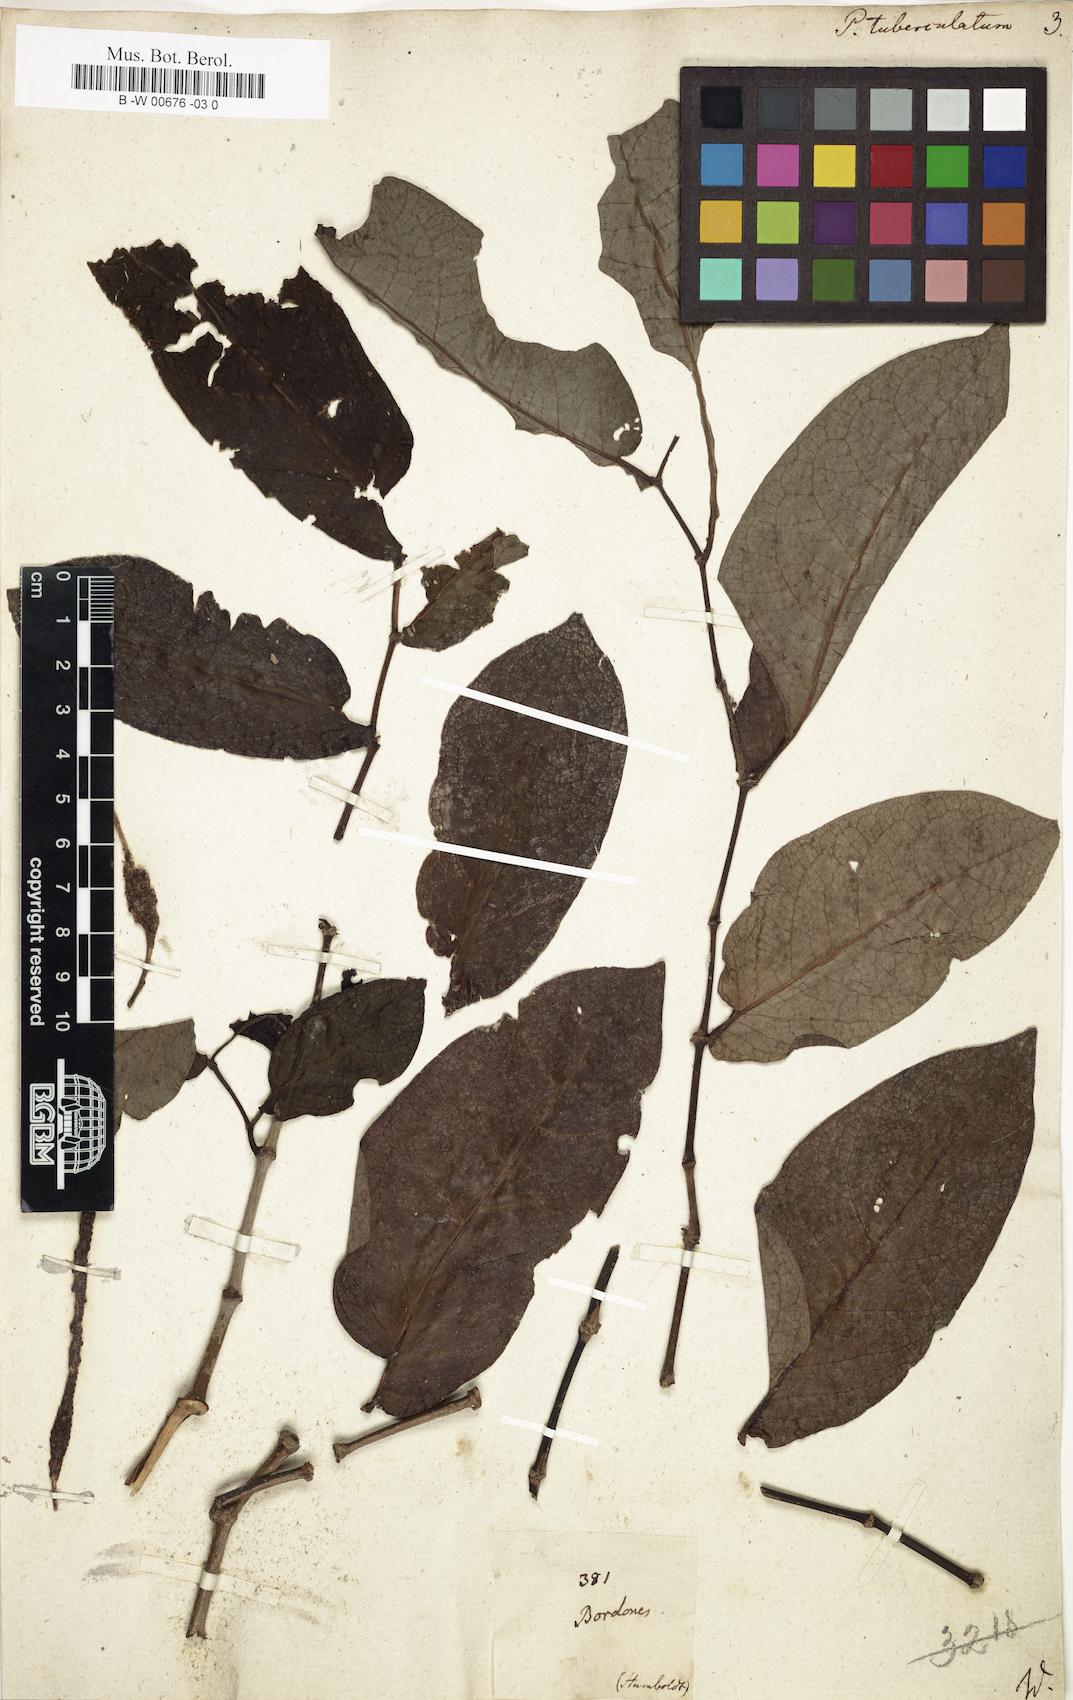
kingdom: Plantae
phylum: Tracheophyta
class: Magnoliopsida
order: Piperales
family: Piperaceae
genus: Piper
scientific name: Piper tuberculatum
